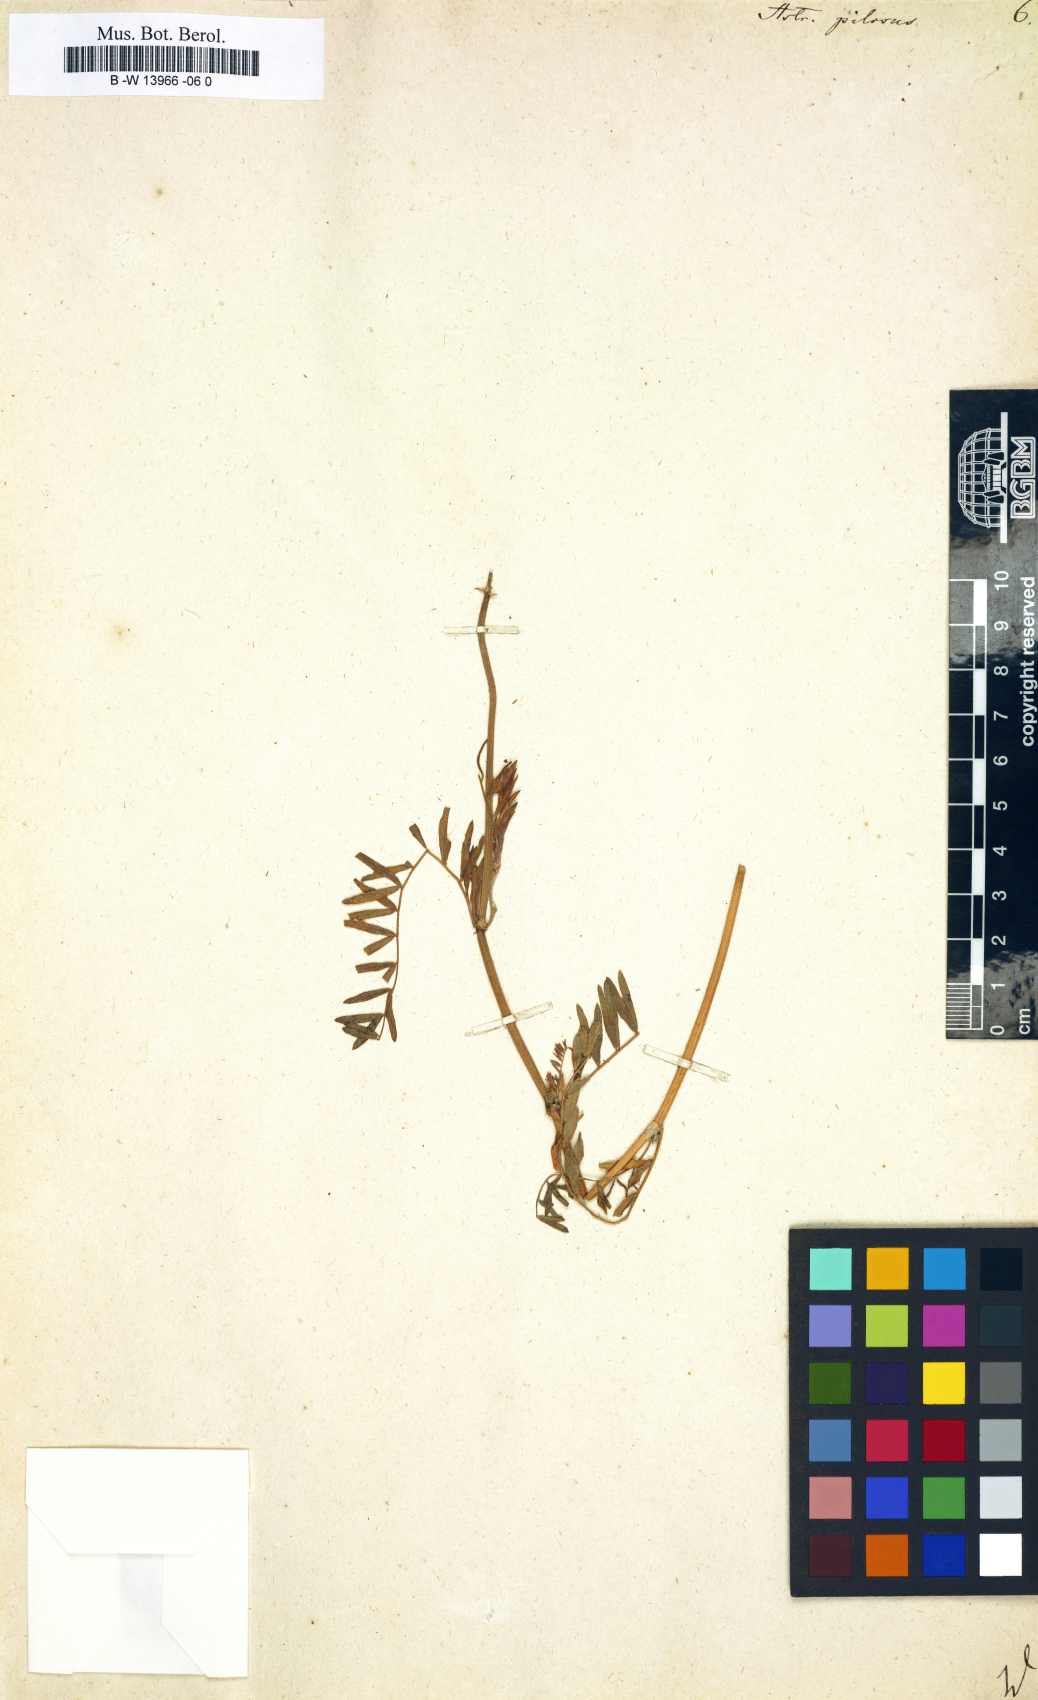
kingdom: Plantae
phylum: Tracheophyta
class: Magnoliopsida
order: Fabales
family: Fabaceae
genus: Oxytropis
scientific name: Oxytropis pilosa
